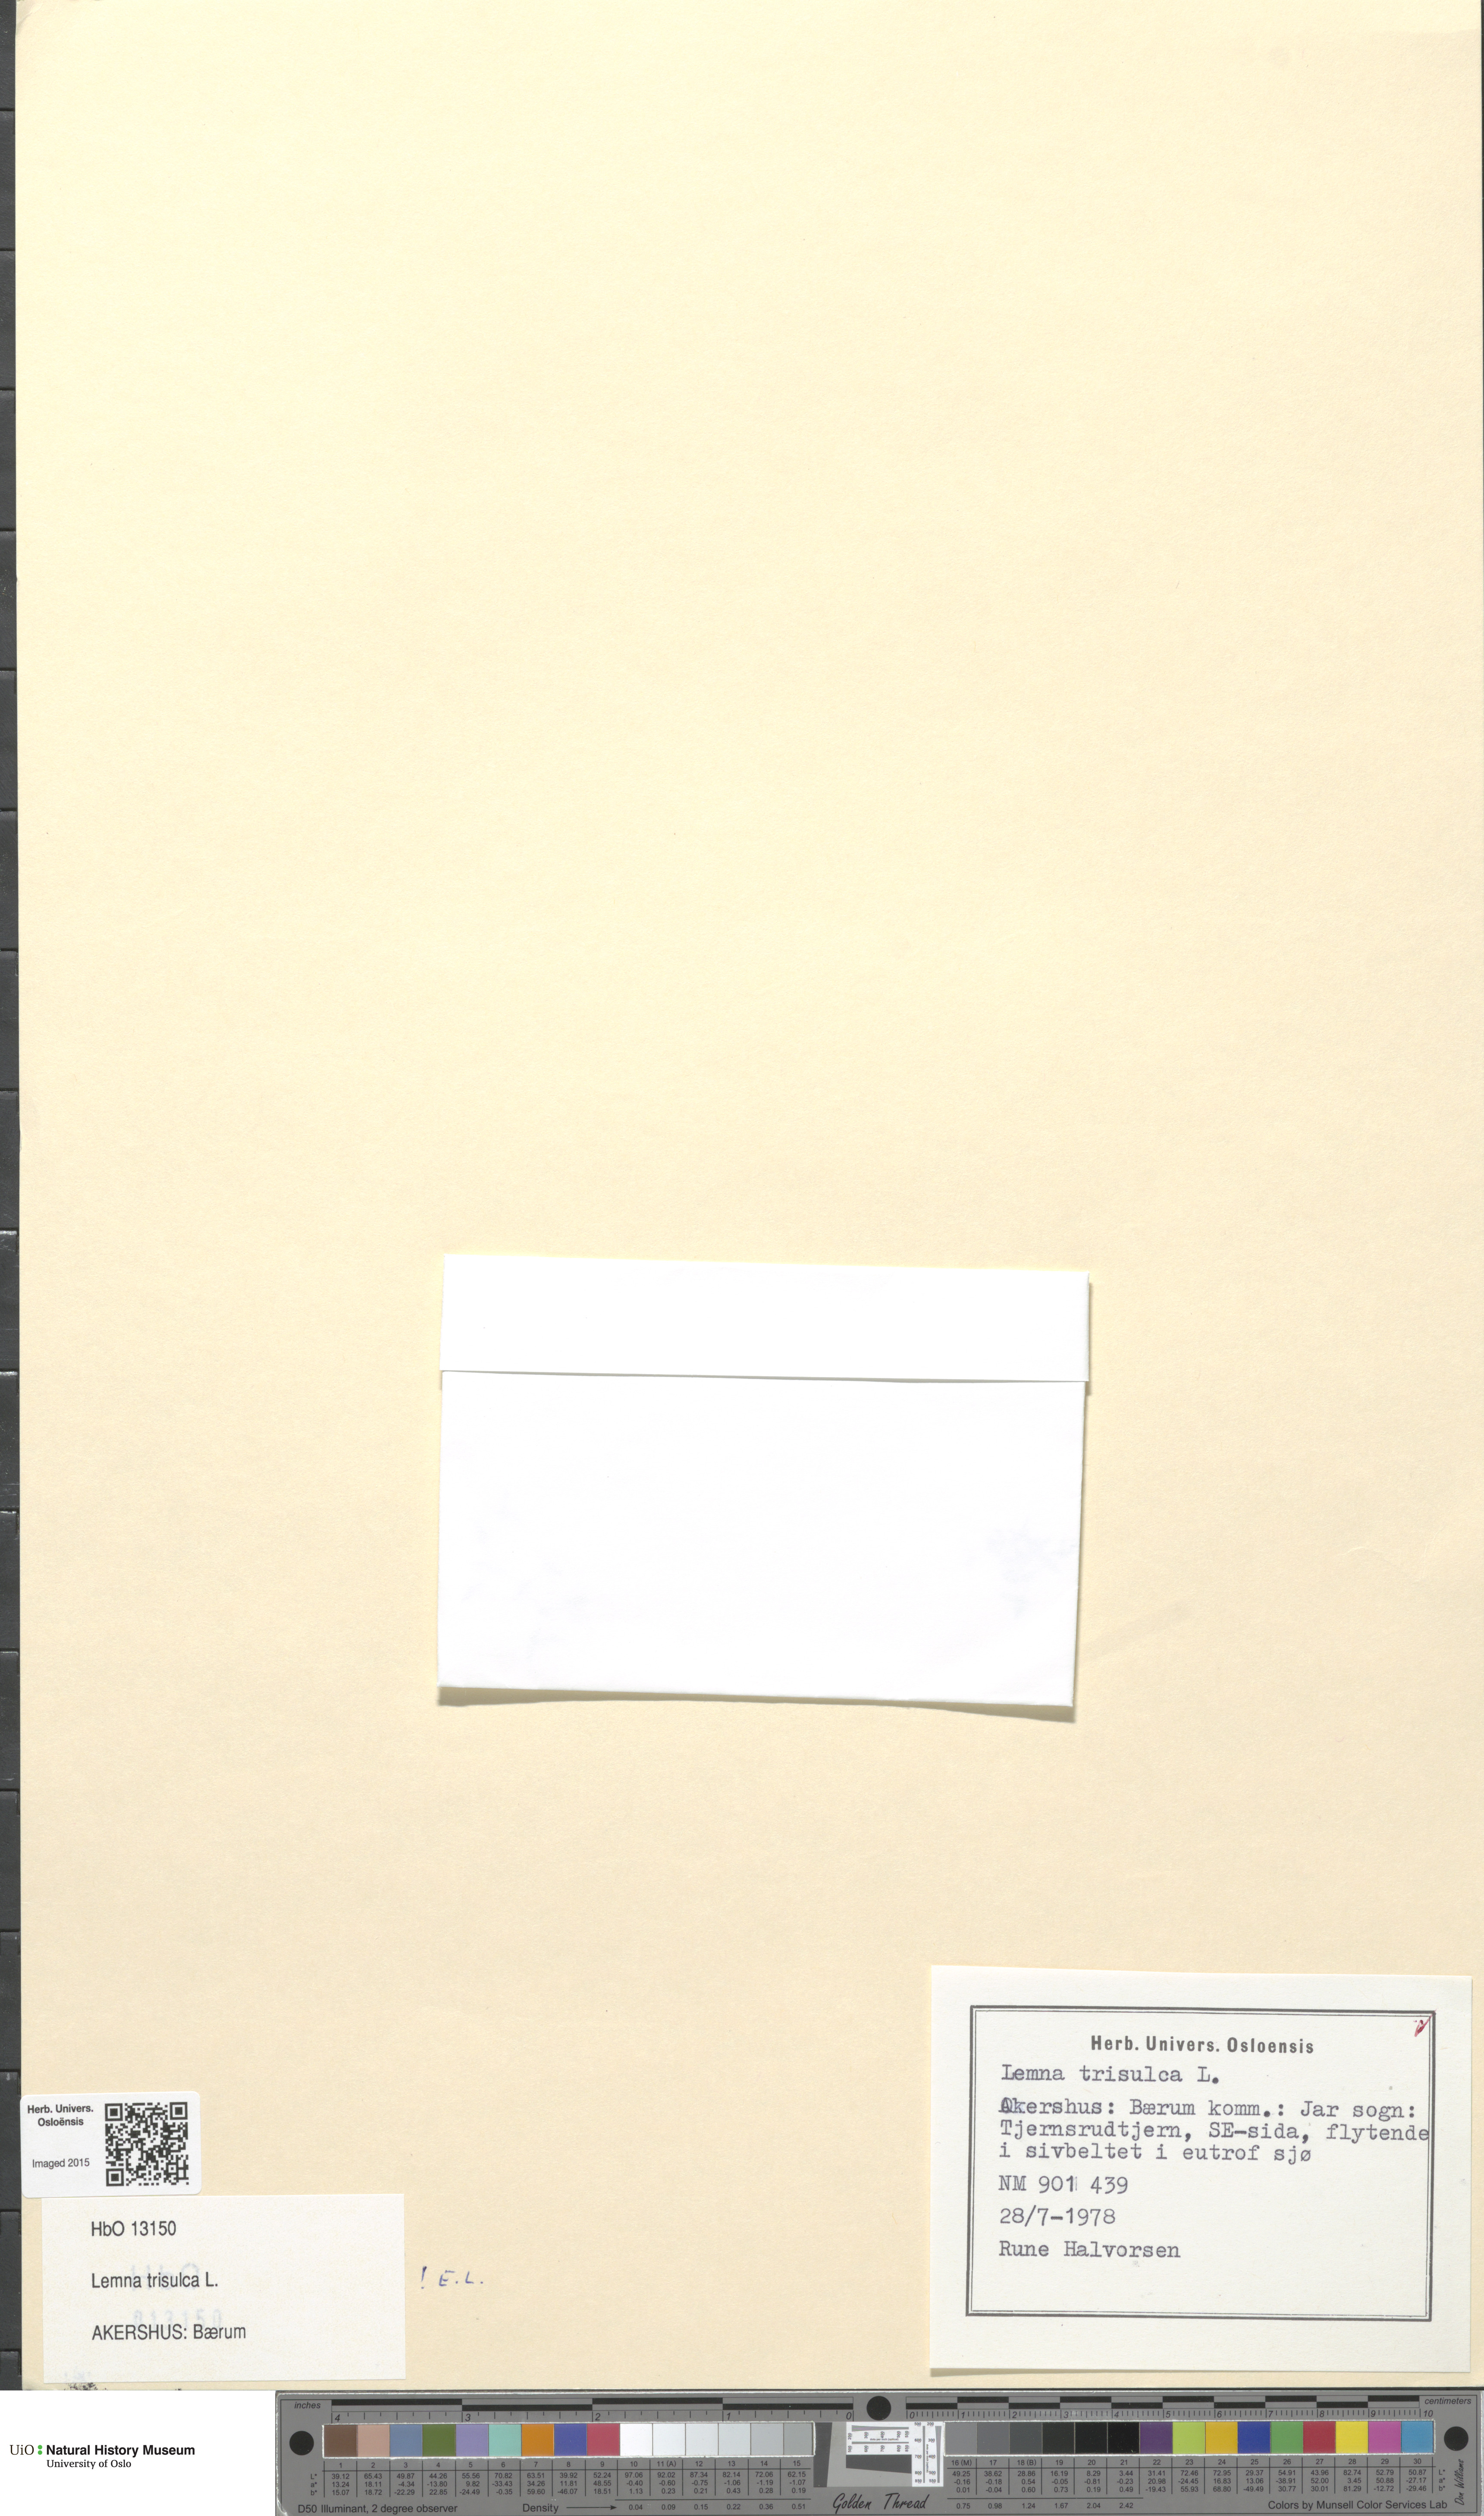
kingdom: Plantae
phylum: Tracheophyta
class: Liliopsida
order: Alismatales
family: Araceae
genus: Lemna
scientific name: Lemna trisulca
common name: Ivy-leaved duckweed
